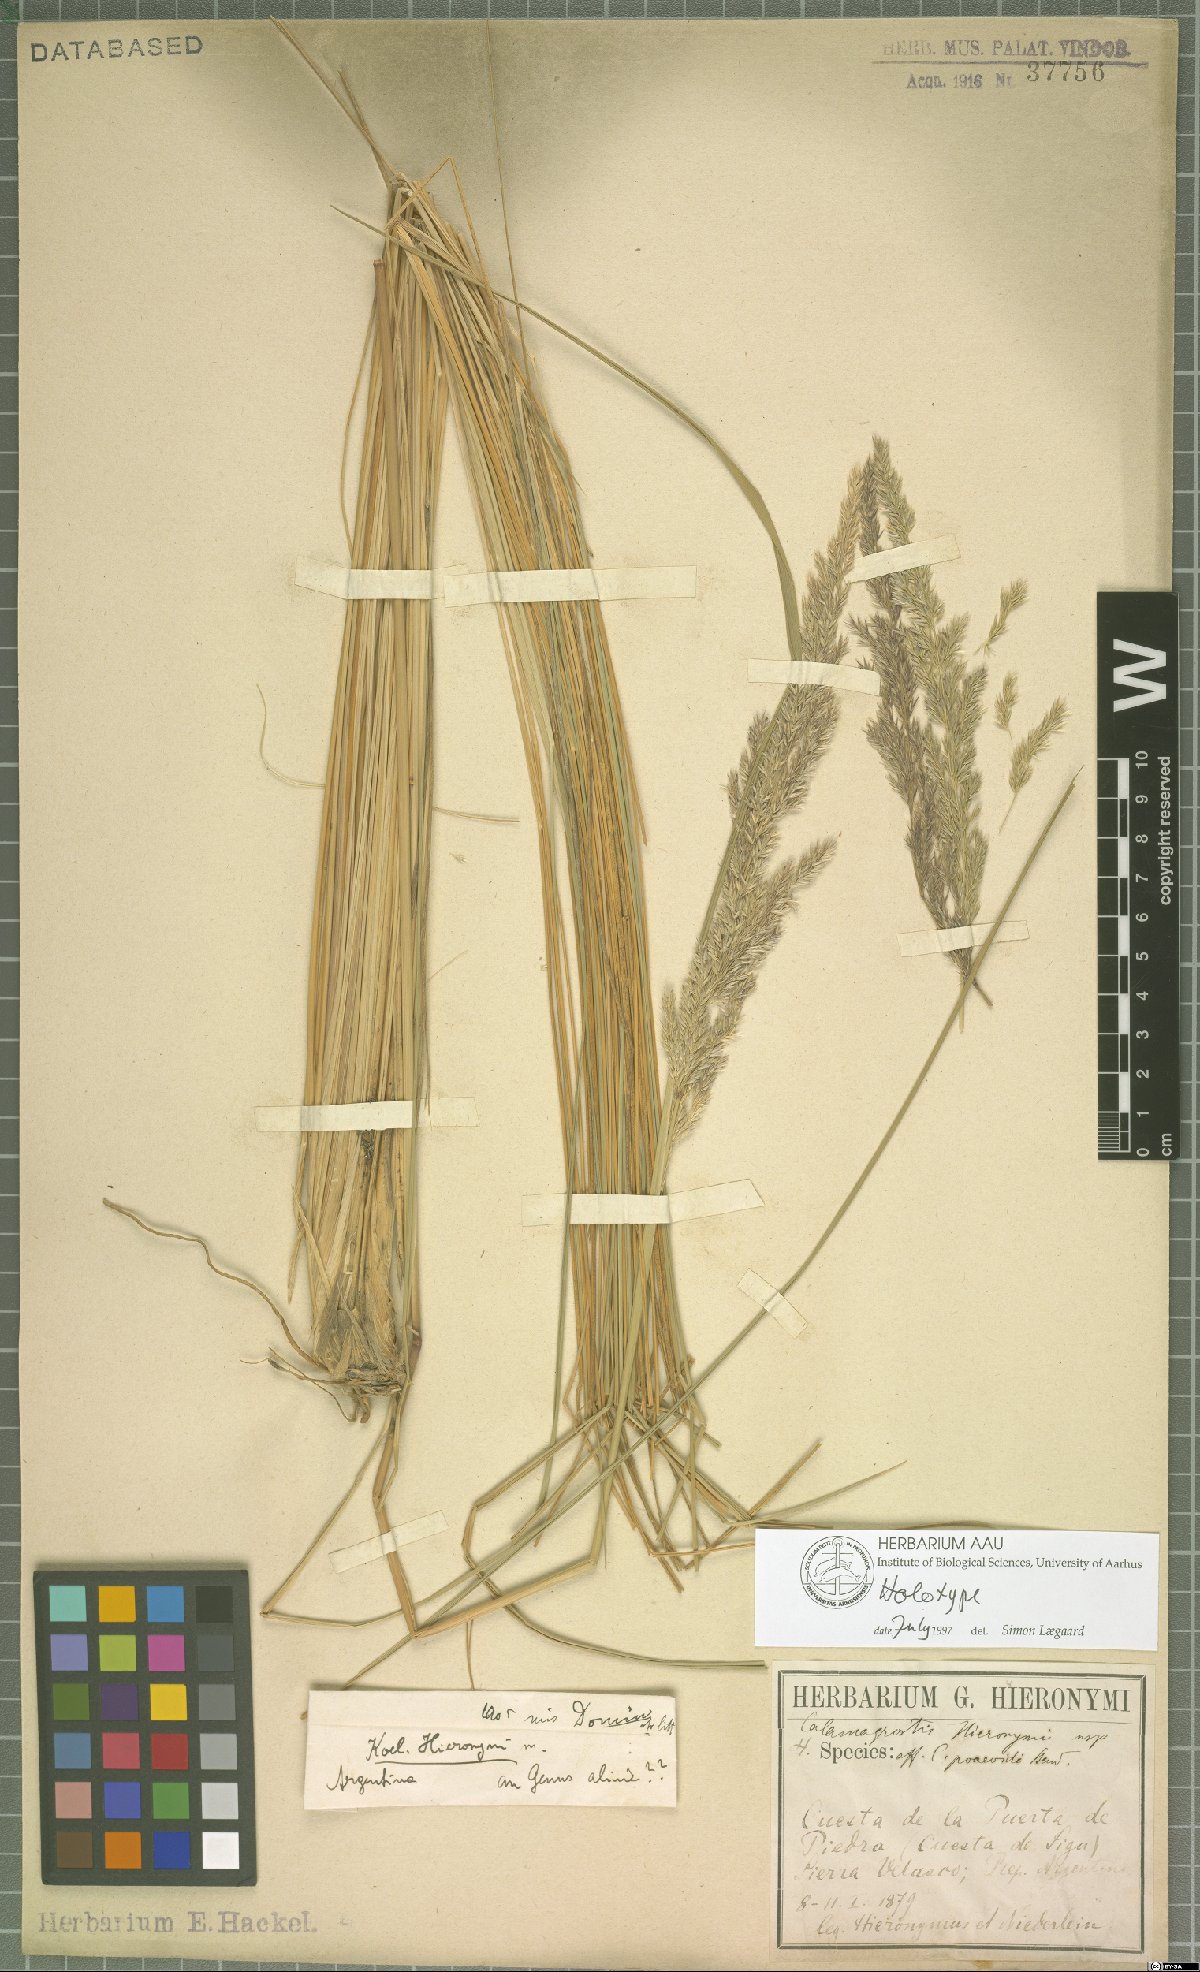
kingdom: Plantae
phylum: Tracheophyta
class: Liliopsida
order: Poales
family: Poaceae
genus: Cinnagrostis
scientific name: Cinnagrostis hieronymi
